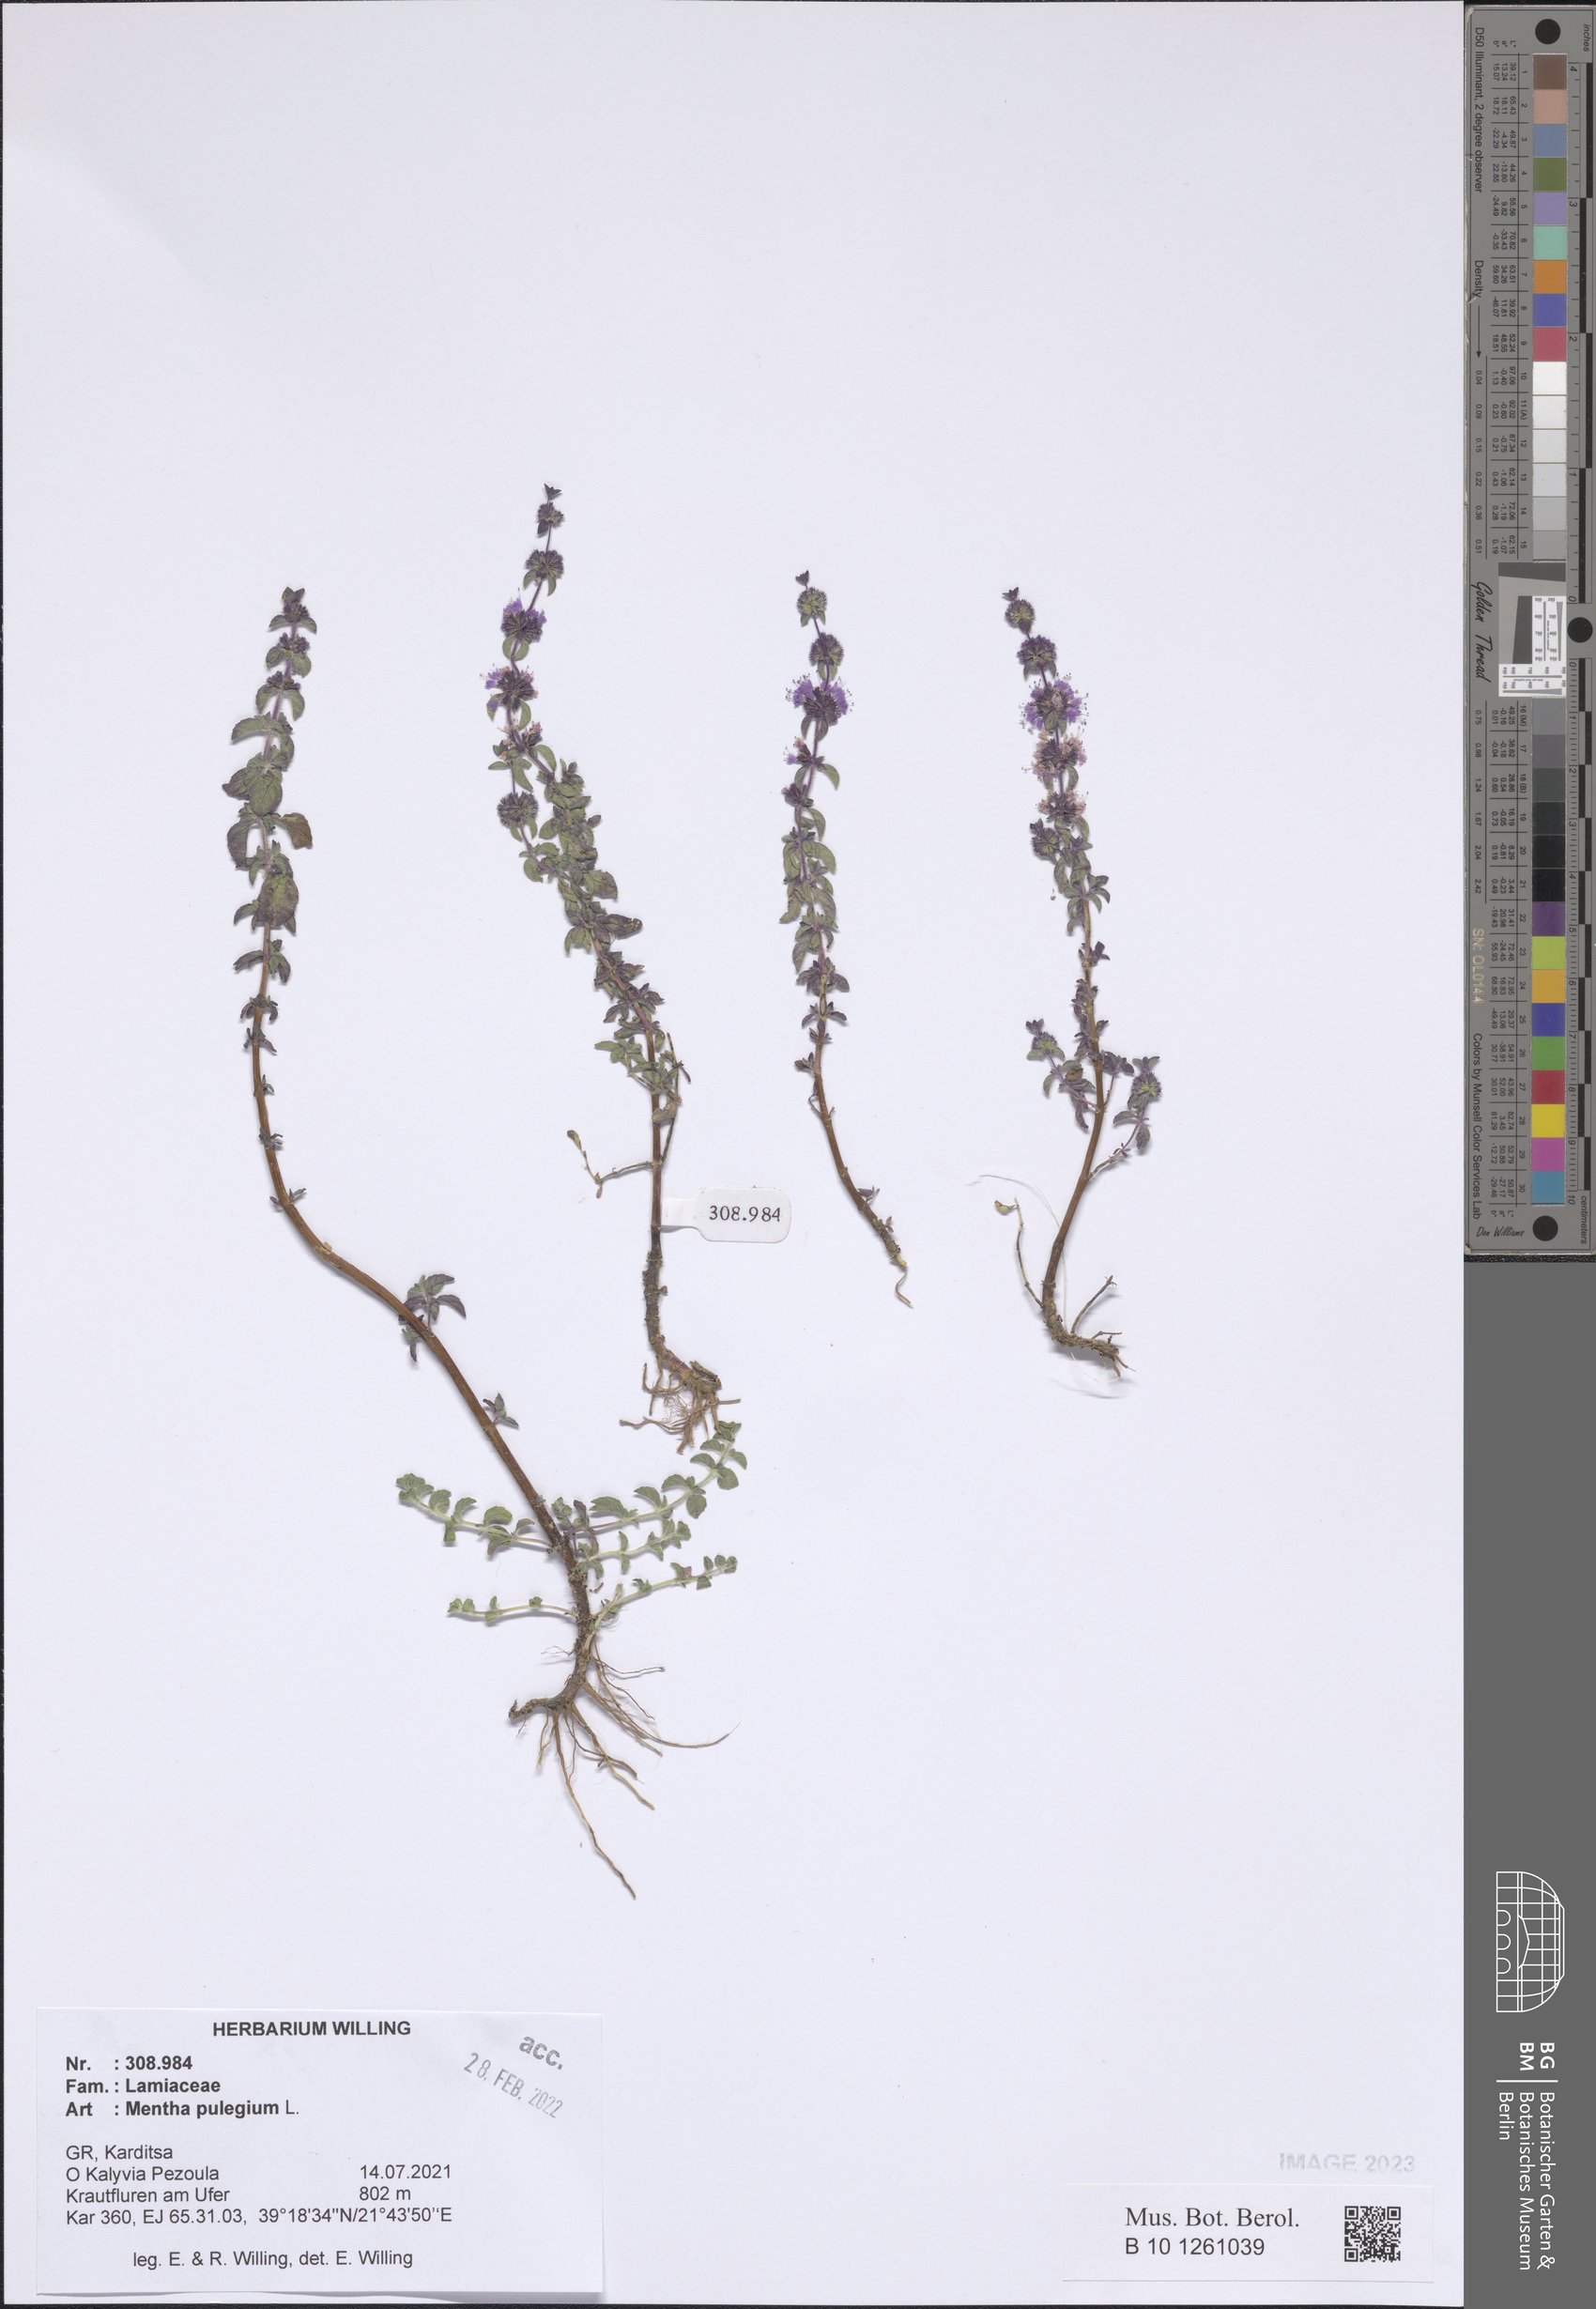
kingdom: Plantae
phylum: Tracheophyta
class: Magnoliopsida
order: Lamiales
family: Lamiaceae
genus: Mentha
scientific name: Mentha pulegium
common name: Pennyroyal
